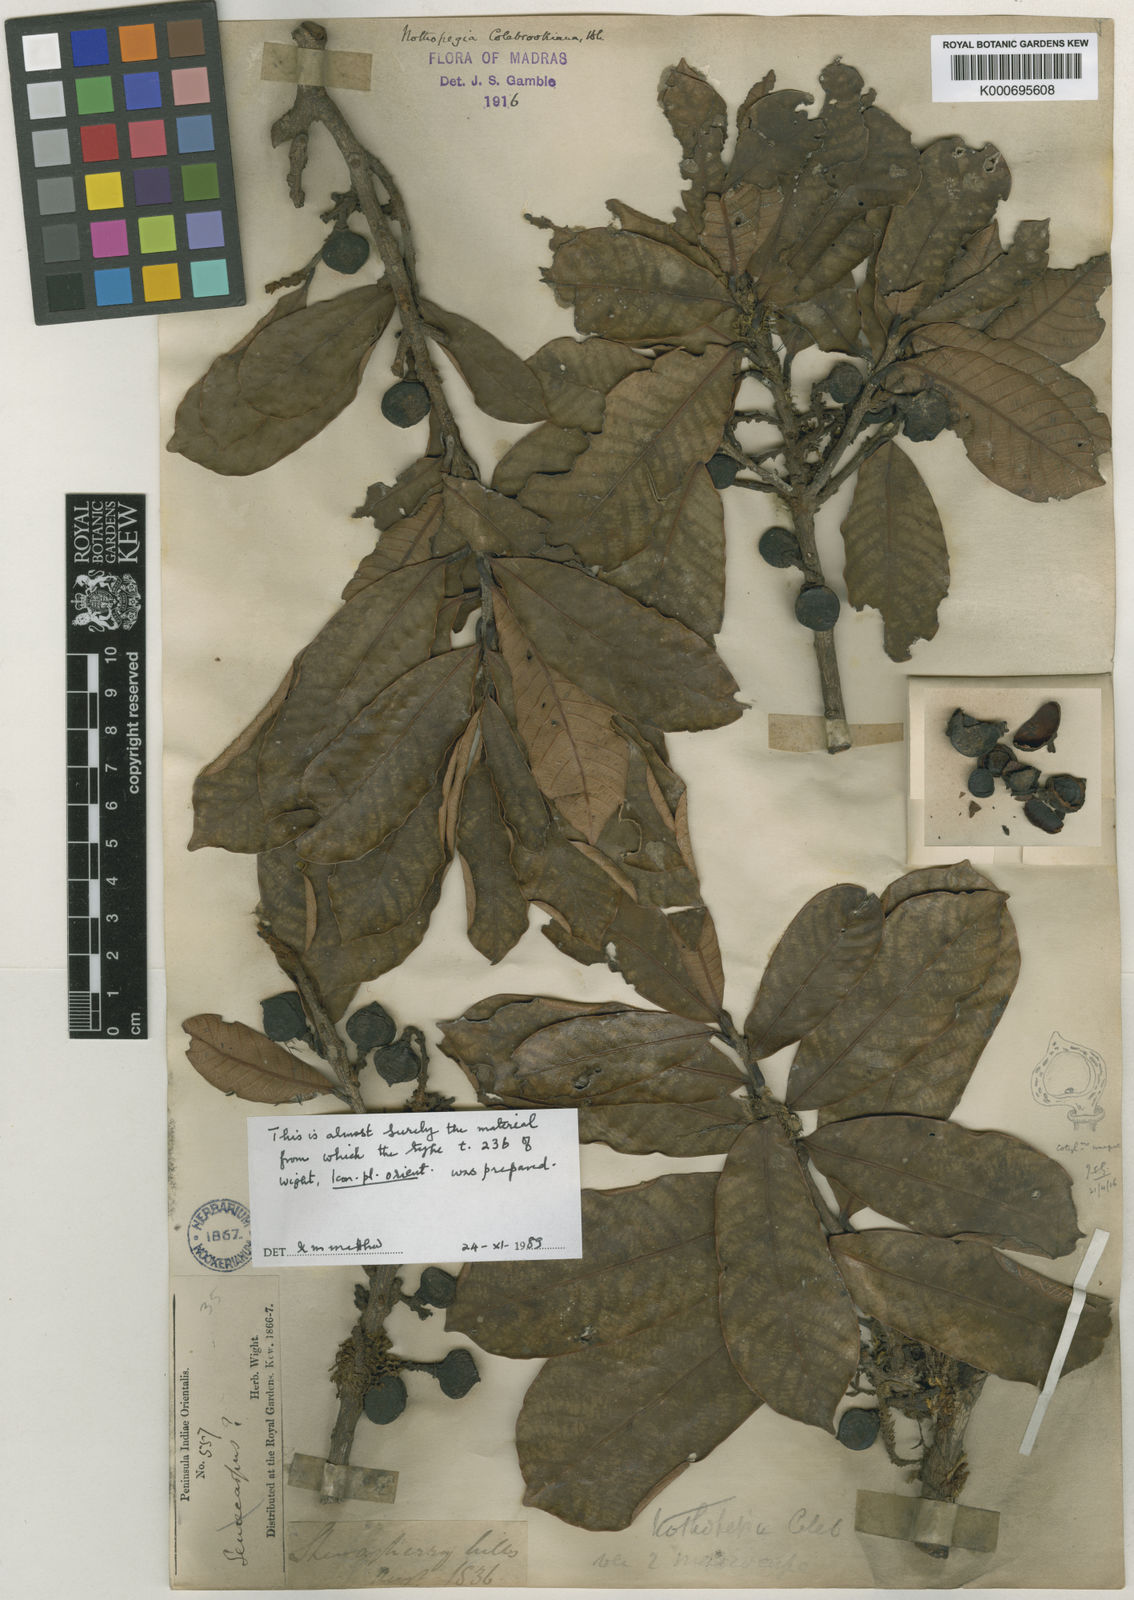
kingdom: Plantae
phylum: Tracheophyta
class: Magnoliopsida
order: Sapindales
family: Anacardiaceae
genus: Nothopegia
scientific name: Nothopegia
